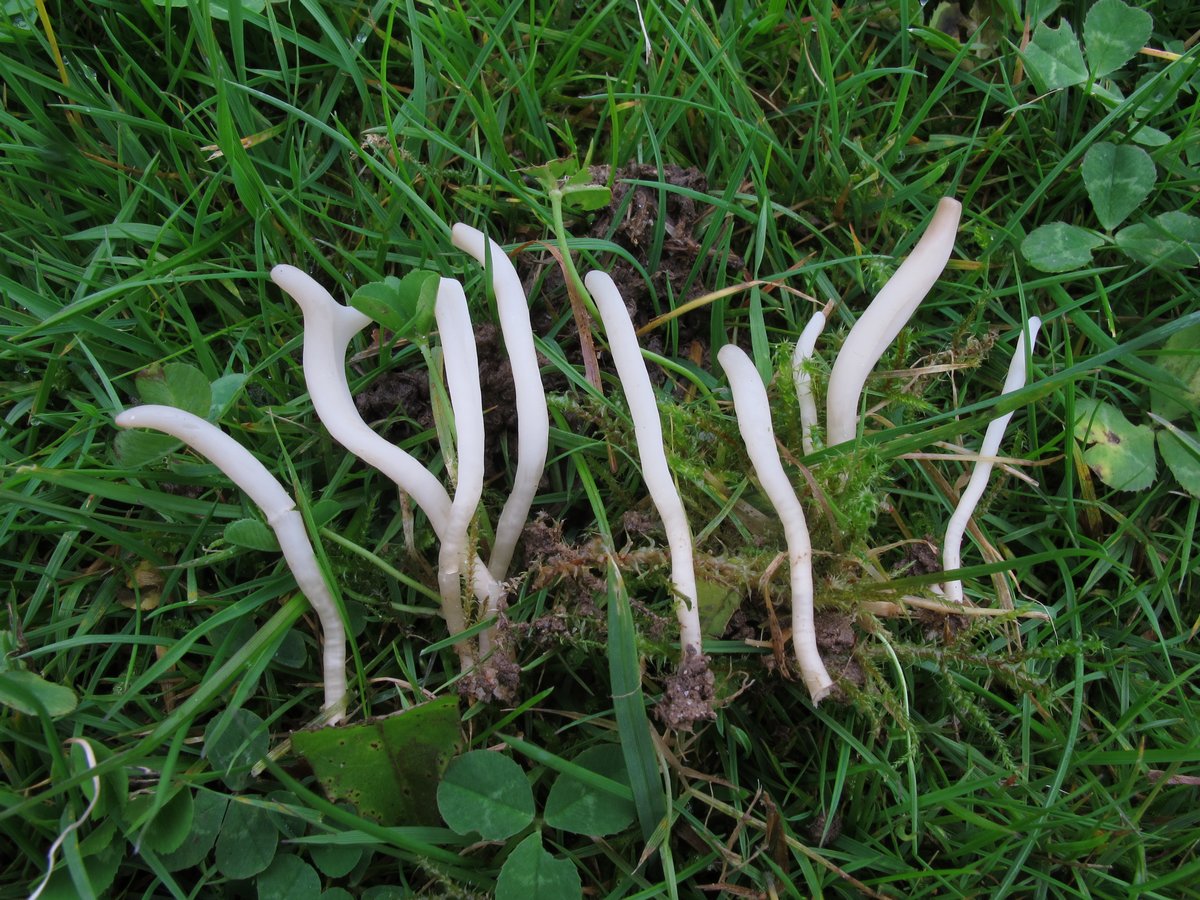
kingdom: Fungi
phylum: Basidiomycota
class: Agaricomycetes
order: Agaricales
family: Clavariaceae
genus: Clavaria
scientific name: Clavaria falcata
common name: hvid køllesvamp
